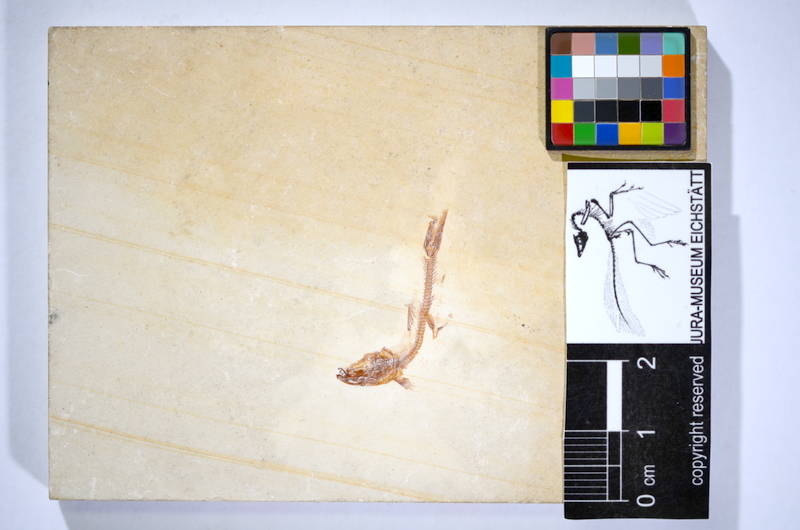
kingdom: Animalia
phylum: Chordata
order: Salmoniformes
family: Orthogonikleithridae
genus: Leptolepides
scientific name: Leptolepides
